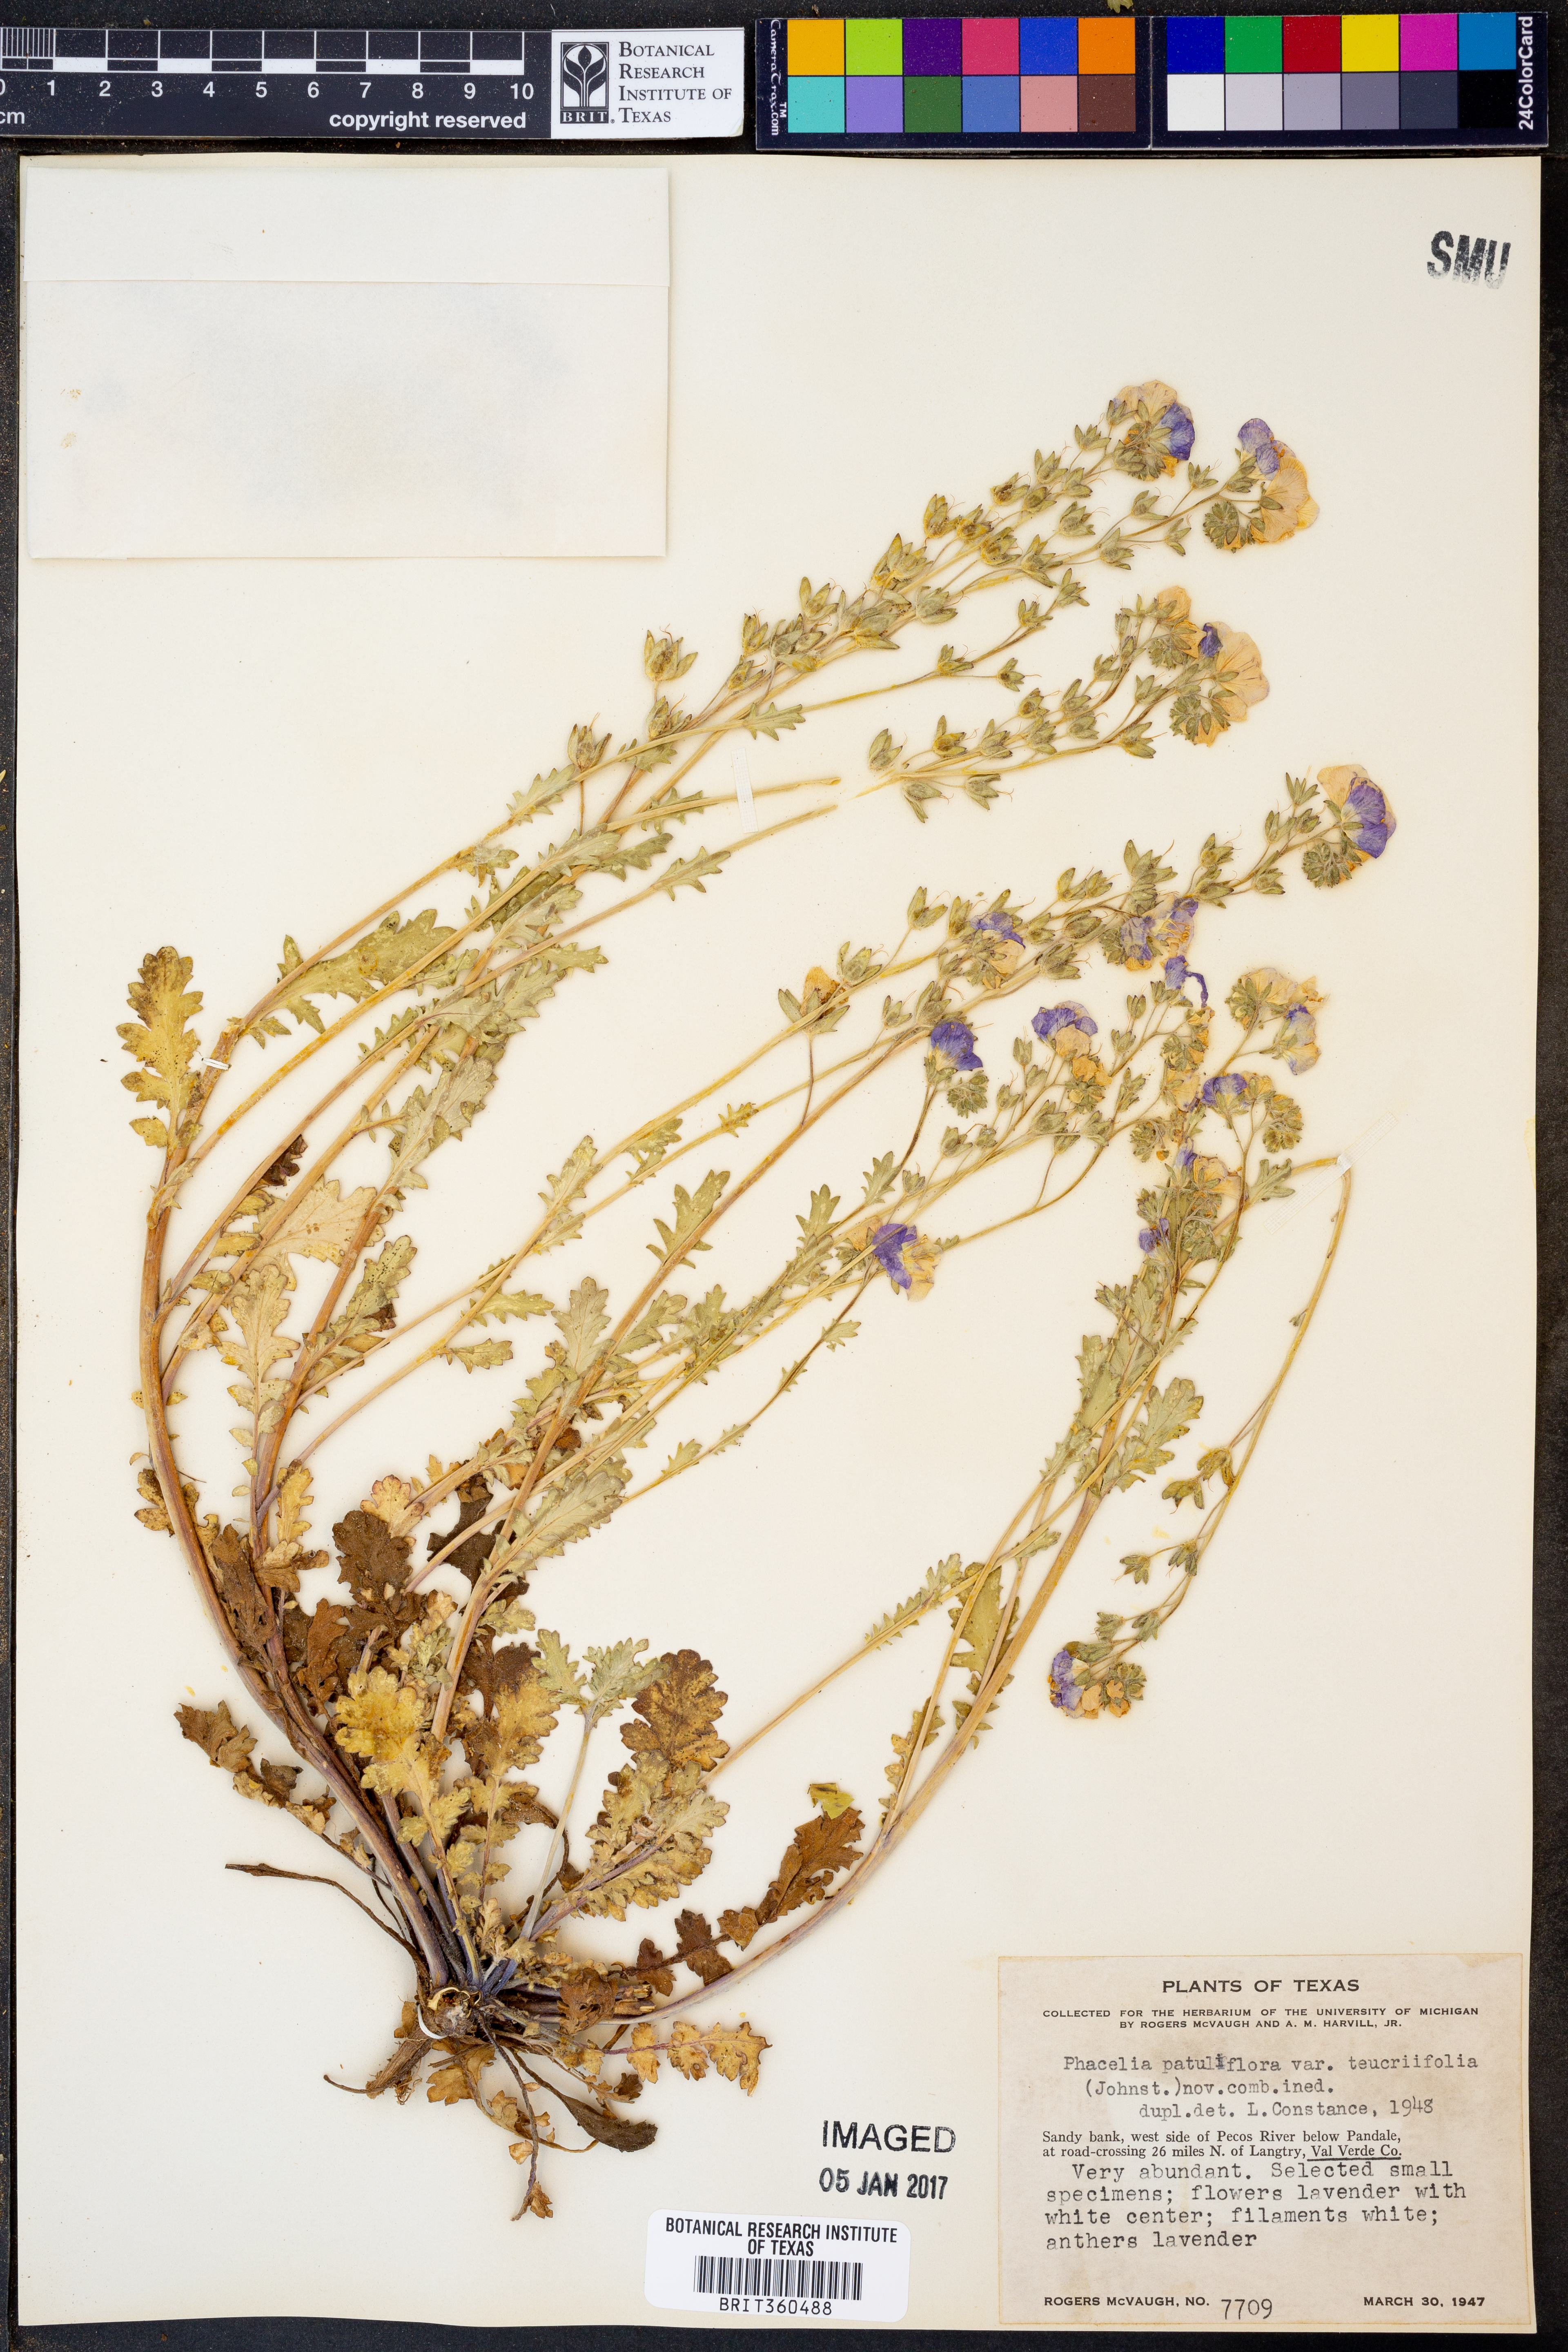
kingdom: Plantae
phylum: Tracheophyta
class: Magnoliopsida
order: Boraginales
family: Hydrophyllaceae
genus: Phacelia
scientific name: Phacelia patuliflora
